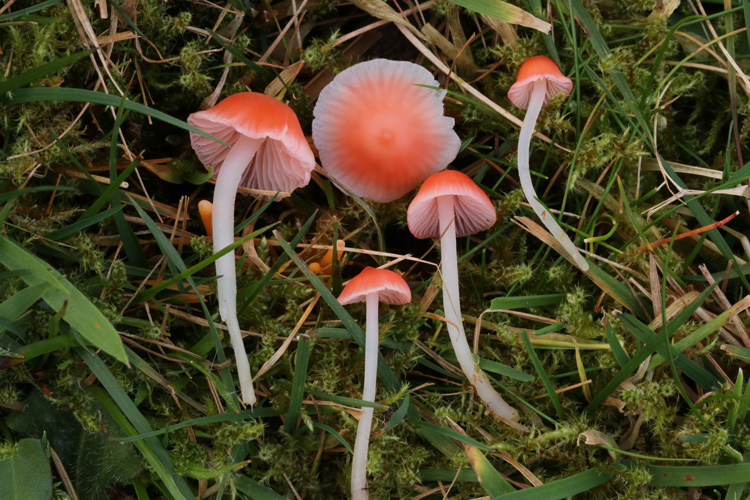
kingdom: Fungi
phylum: Basidiomycota
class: Agaricomycetes
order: Agaricales
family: Mycenaceae
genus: Atheniella
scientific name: Atheniella adonis
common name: rønnerød huesvamp
